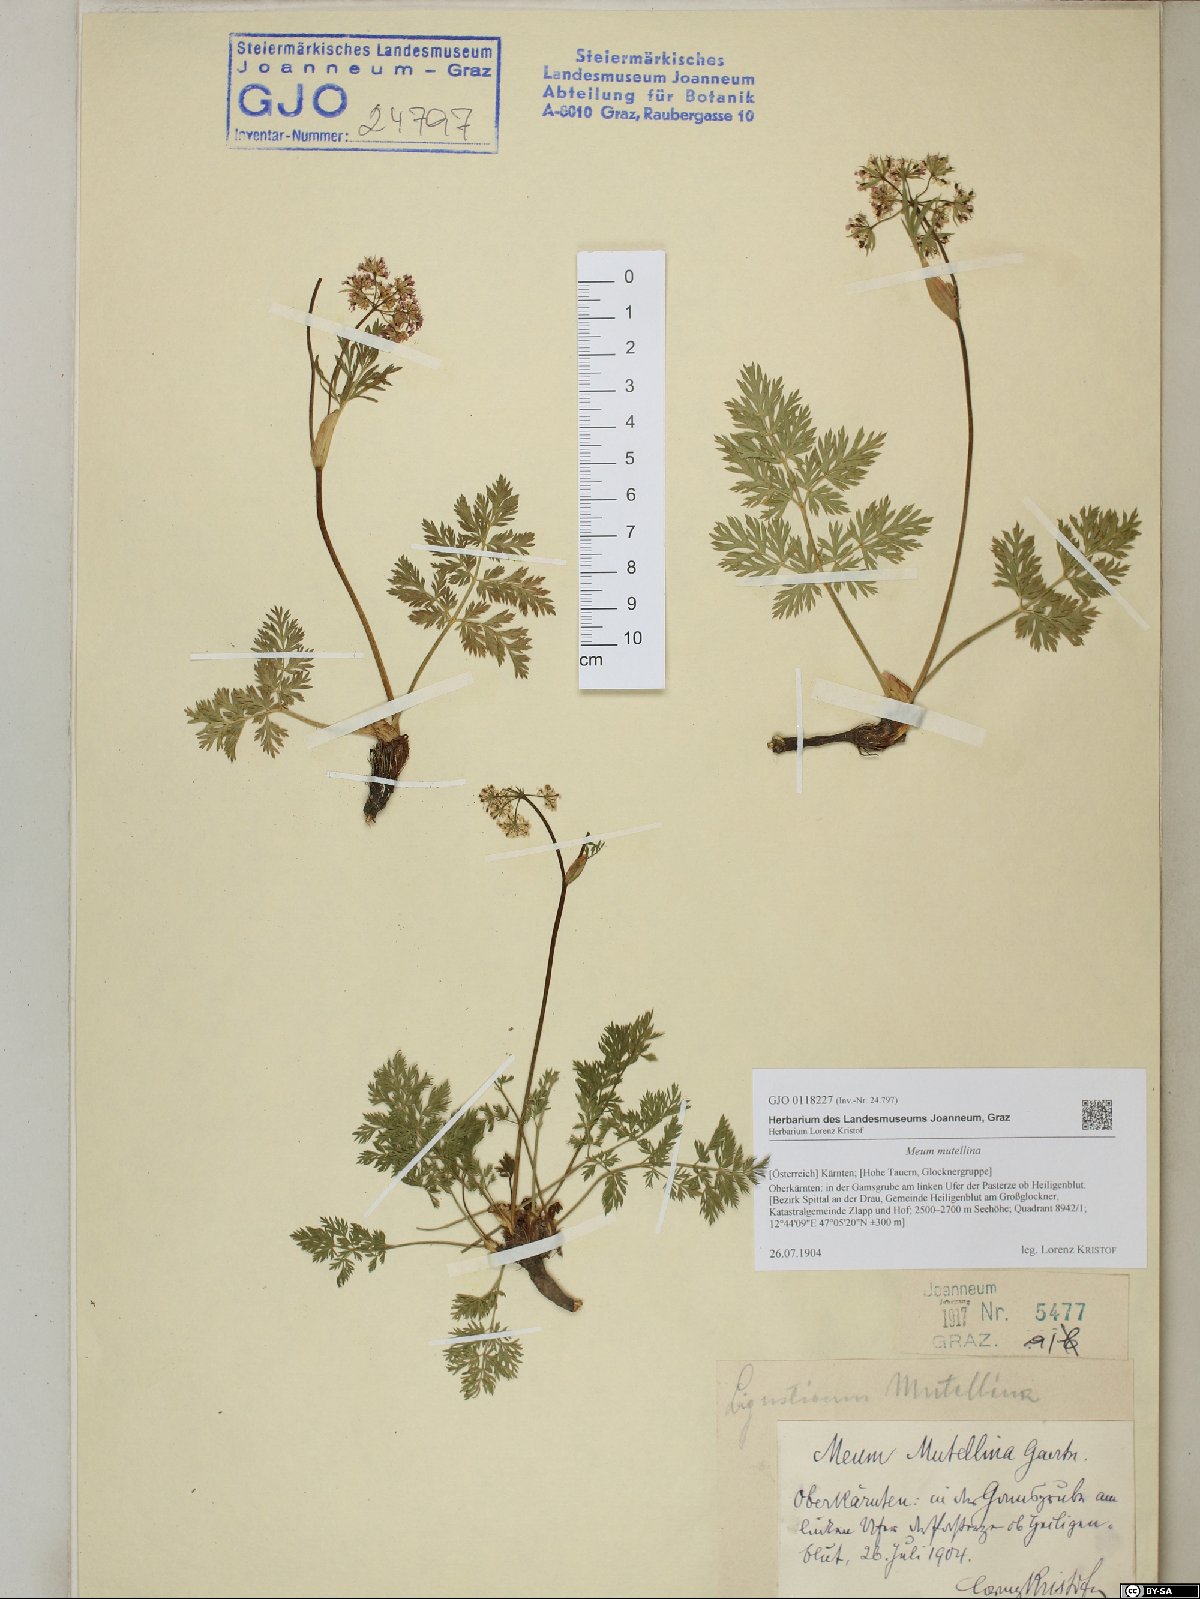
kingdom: Plantae
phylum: Tracheophyta
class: Magnoliopsida
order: Apiales
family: Apiaceae
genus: Mutellina
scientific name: Mutellina adonidifolia
